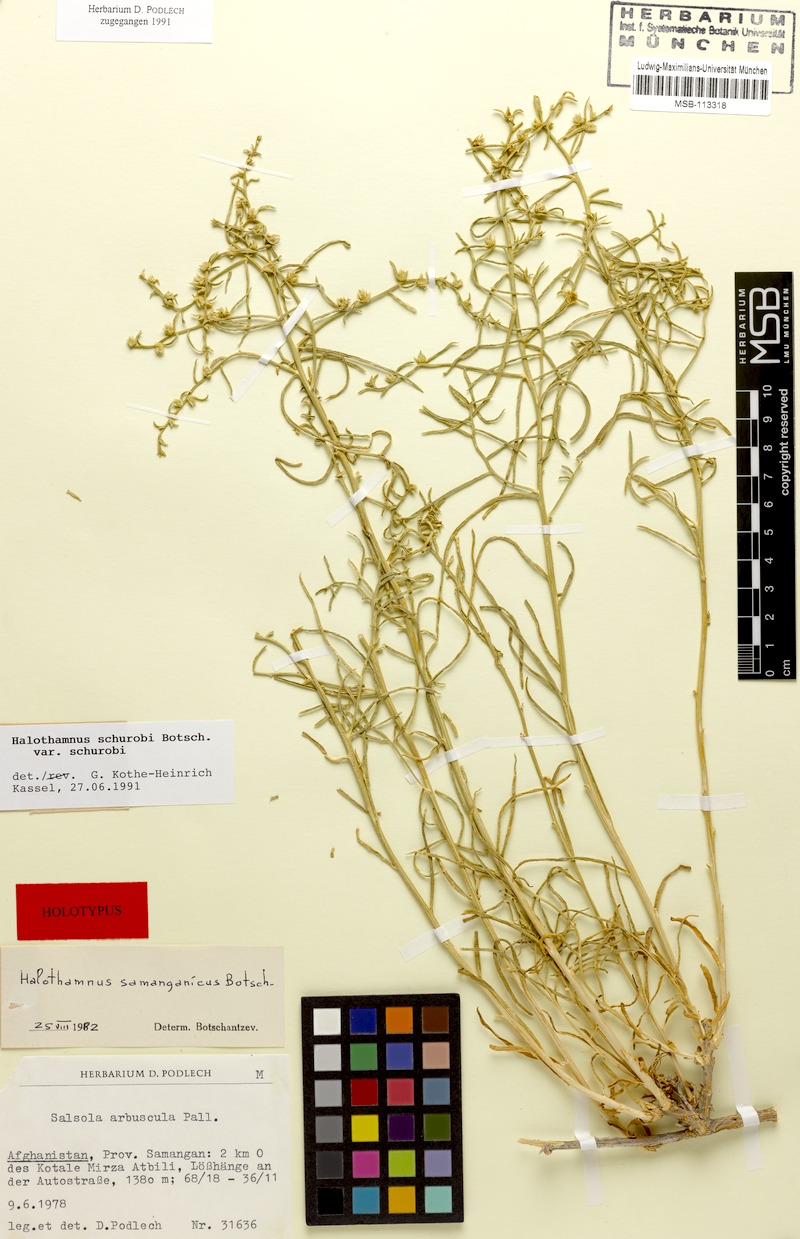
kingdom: Plantae
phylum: Tracheophyta
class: Magnoliopsida
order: Caryophyllales
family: Amaranthaceae
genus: Halothamnus
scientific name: Halothamnus schurobi
